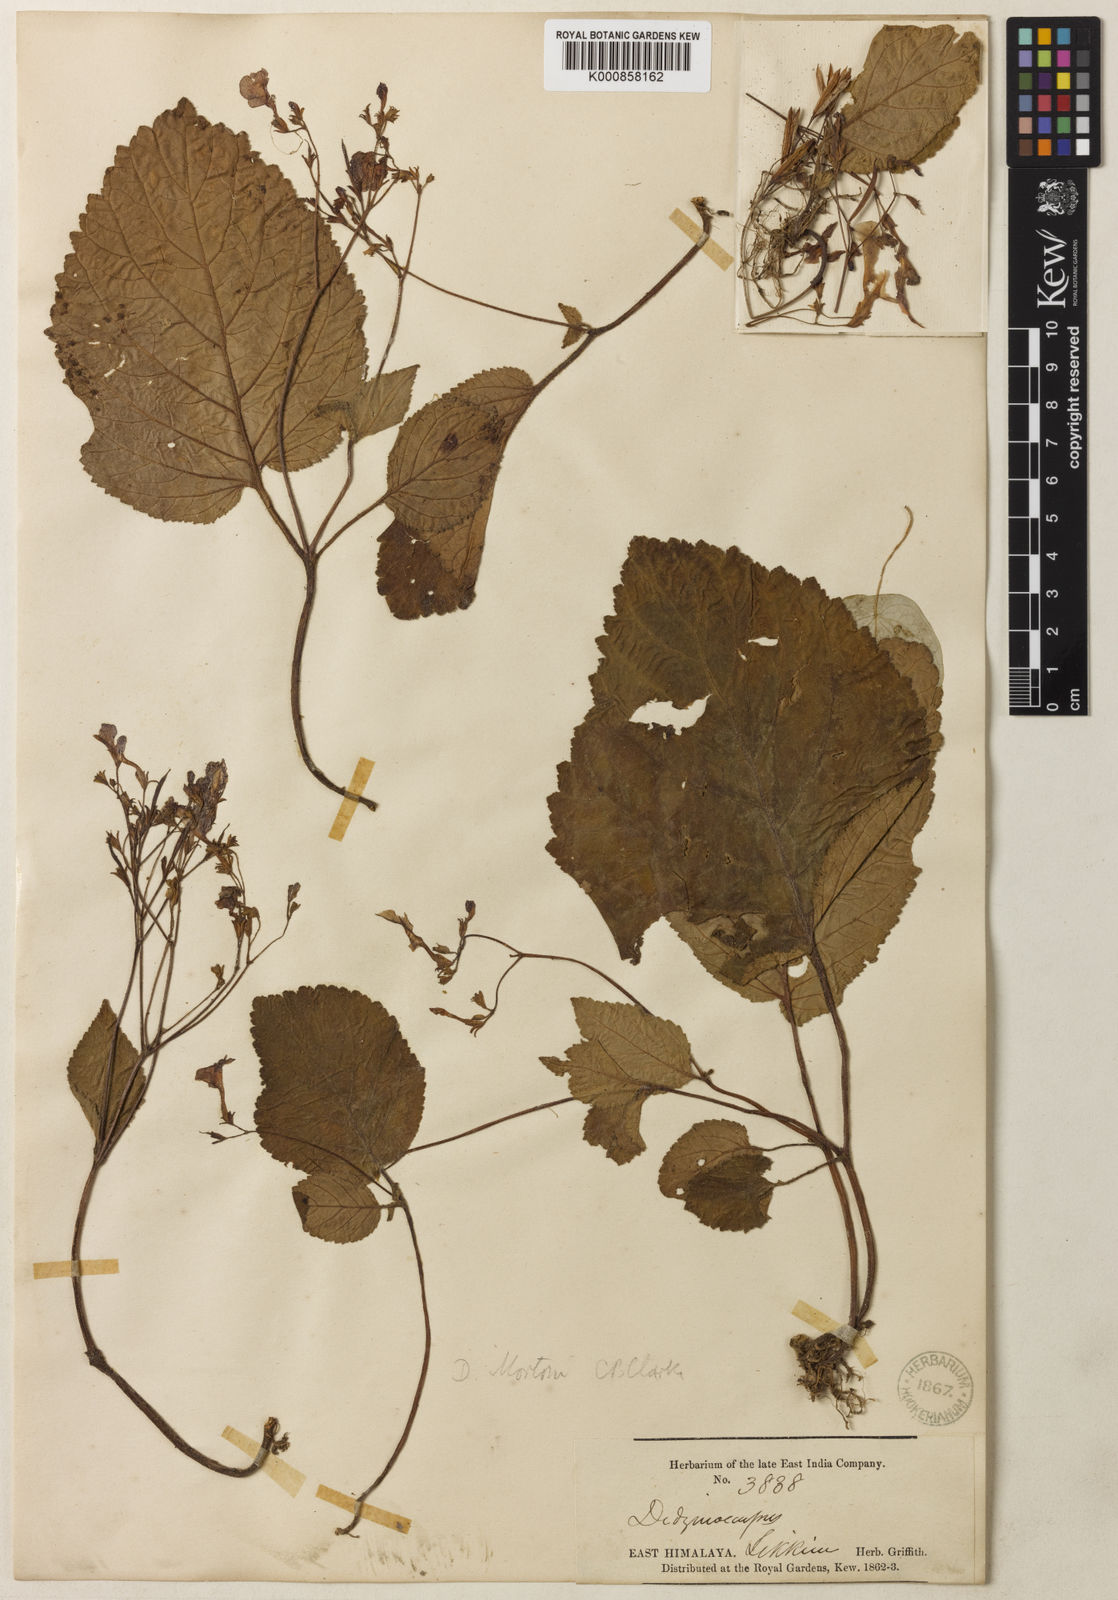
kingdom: Plantae
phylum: Tracheophyta
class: Magnoliopsida
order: Lamiales
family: Gesneriaceae
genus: Henckelia
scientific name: Henckelia
